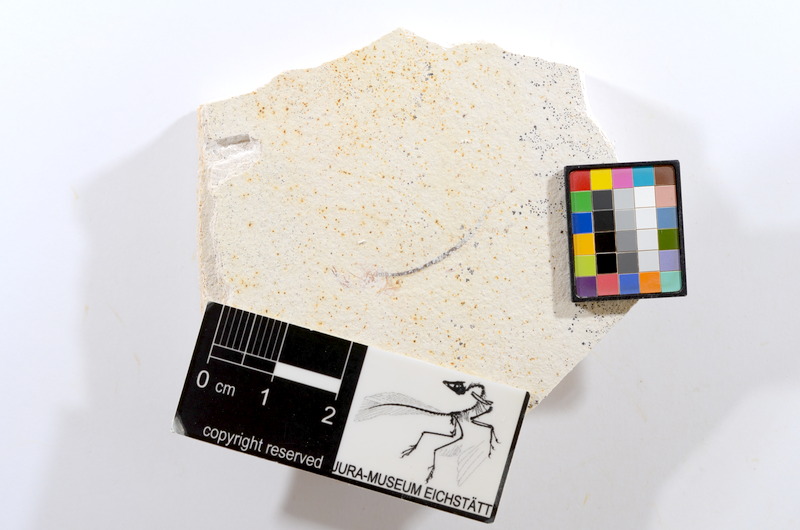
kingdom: Animalia
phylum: Chordata
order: Salmoniformes
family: Orthogonikleithridae
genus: Orthogonikleithrus
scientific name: Orthogonikleithrus hoelli
